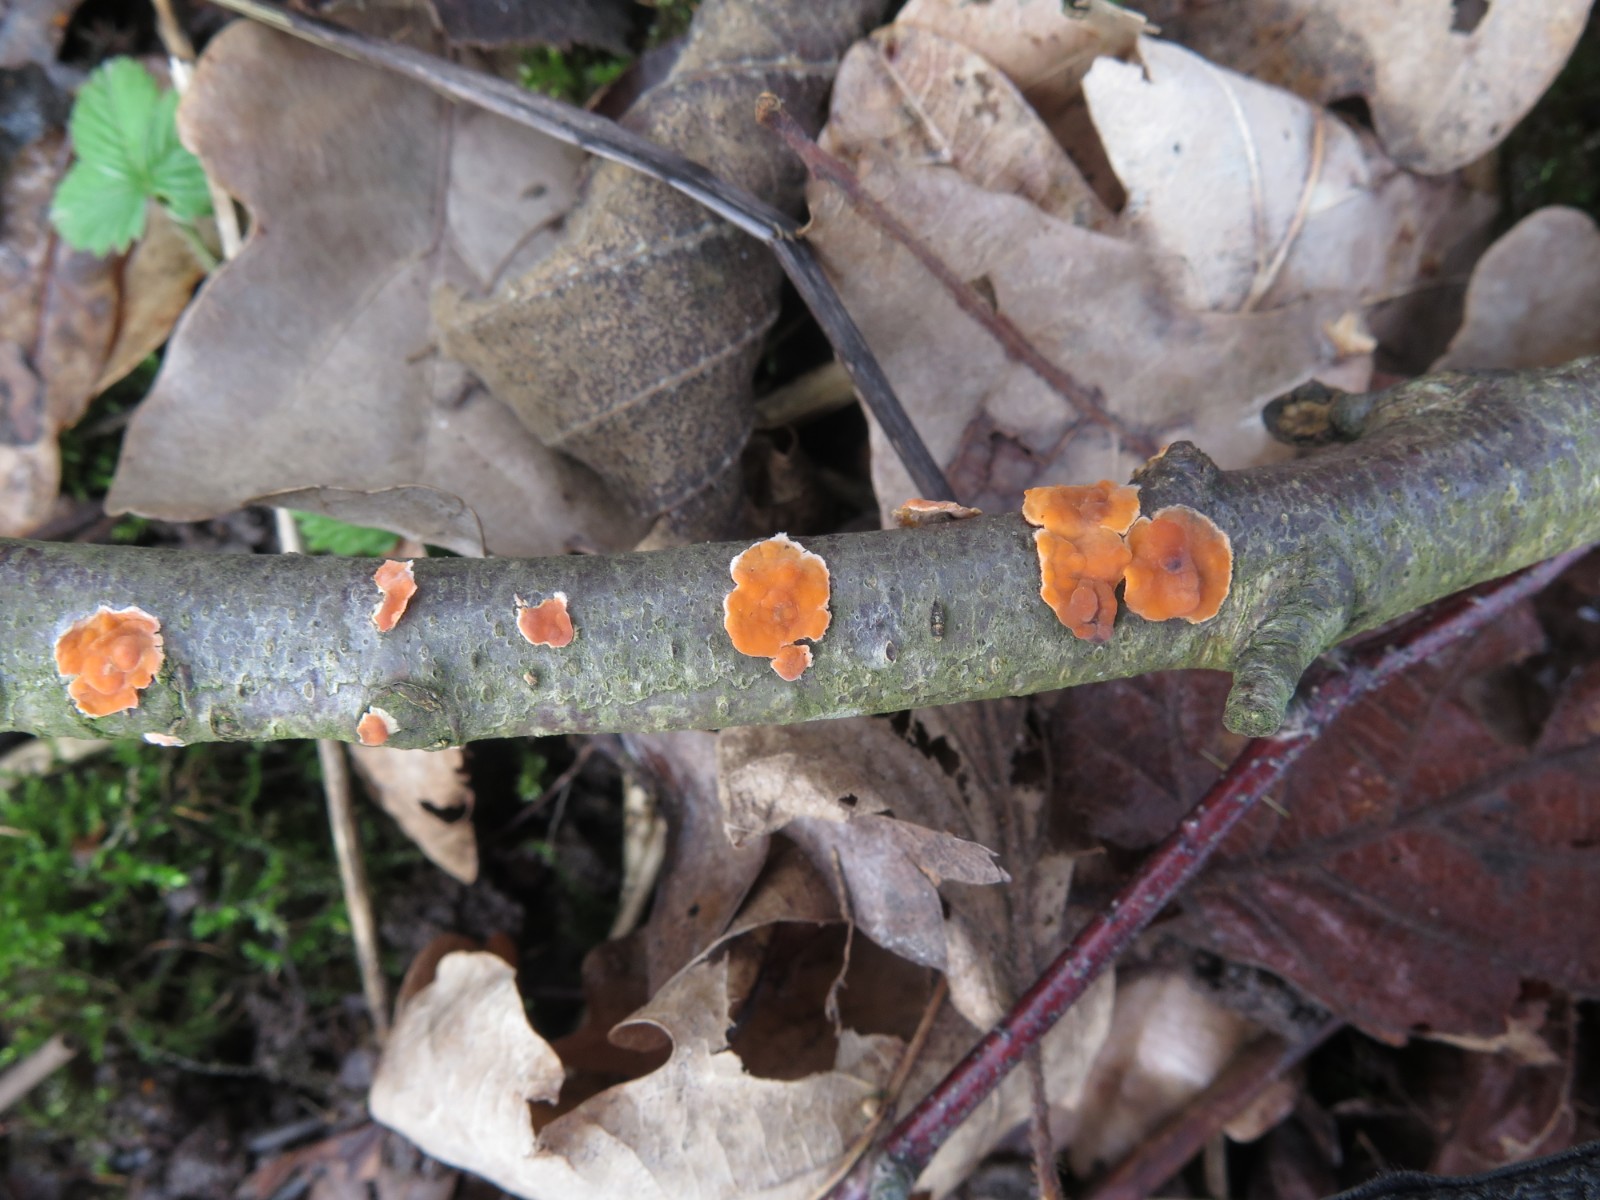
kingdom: Fungi
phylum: Basidiomycota
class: Agaricomycetes
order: Russulales
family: Peniophoraceae
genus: Peniophora
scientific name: Peniophora incarnata
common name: laksefarvet voksskind
